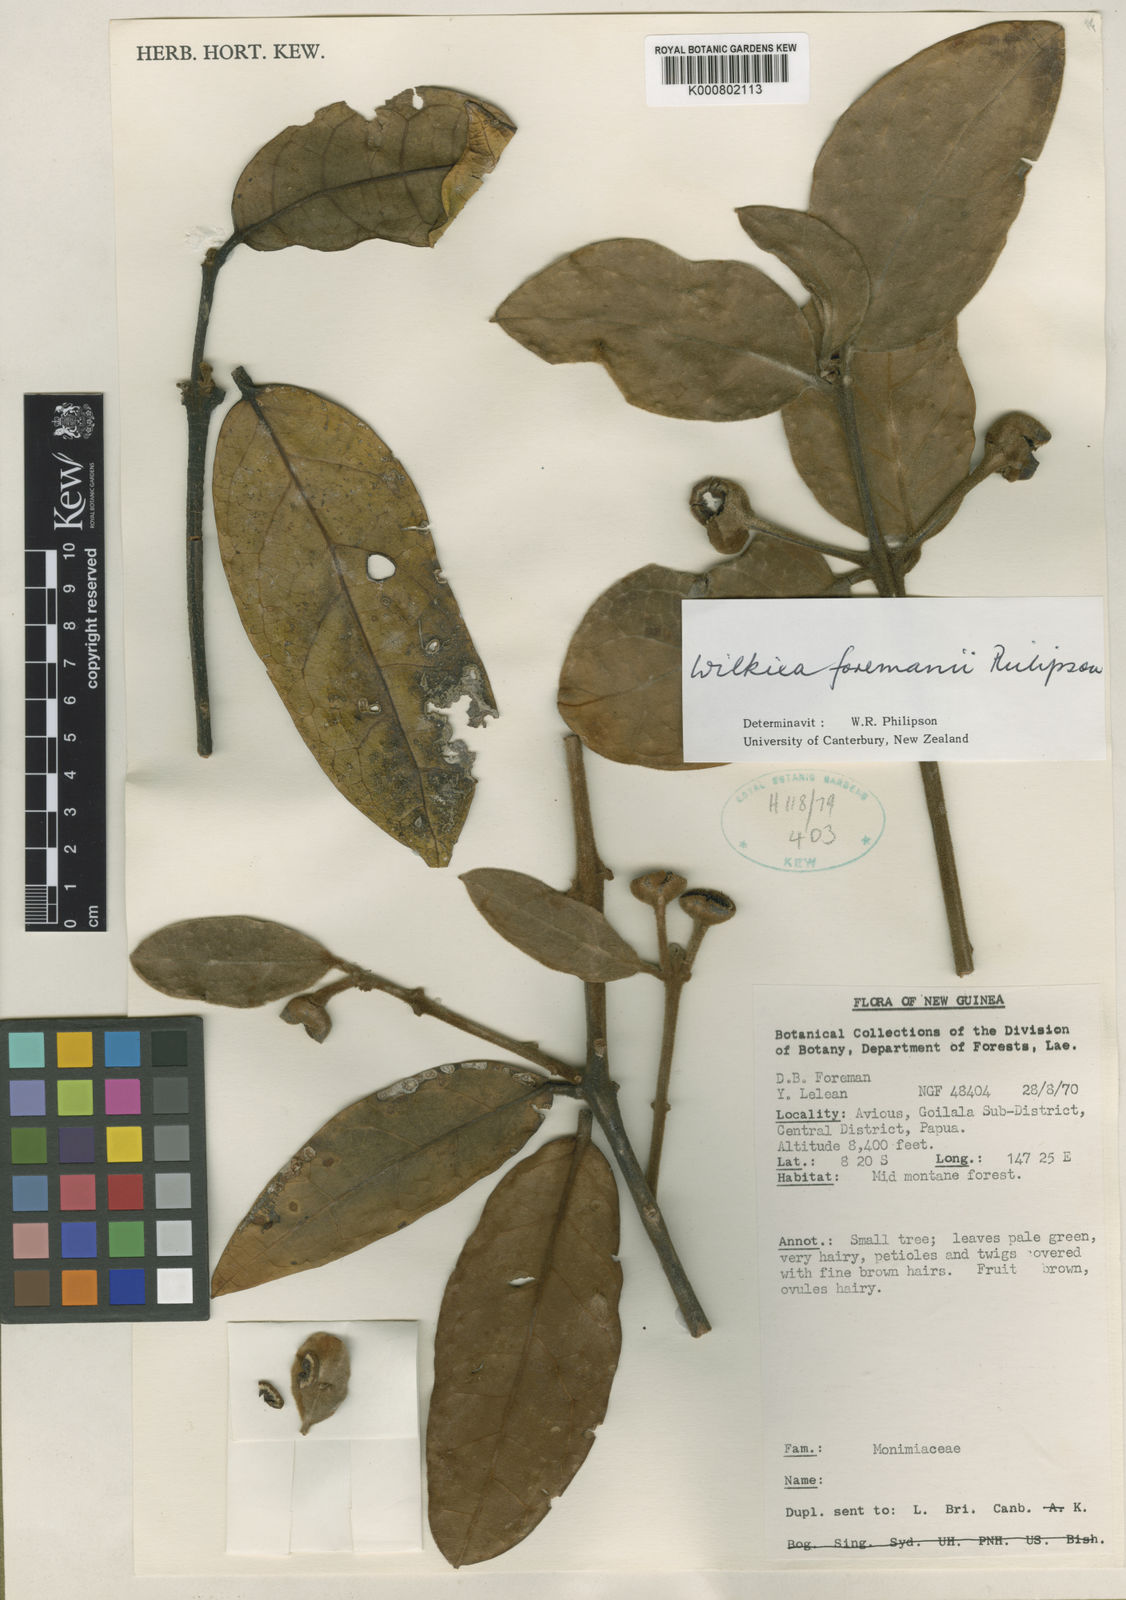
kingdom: Plantae
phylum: Tracheophyta
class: Magnoliopsida
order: Laurales
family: Monimiaceae
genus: Wilkiea
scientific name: Wilkiea foremanii
